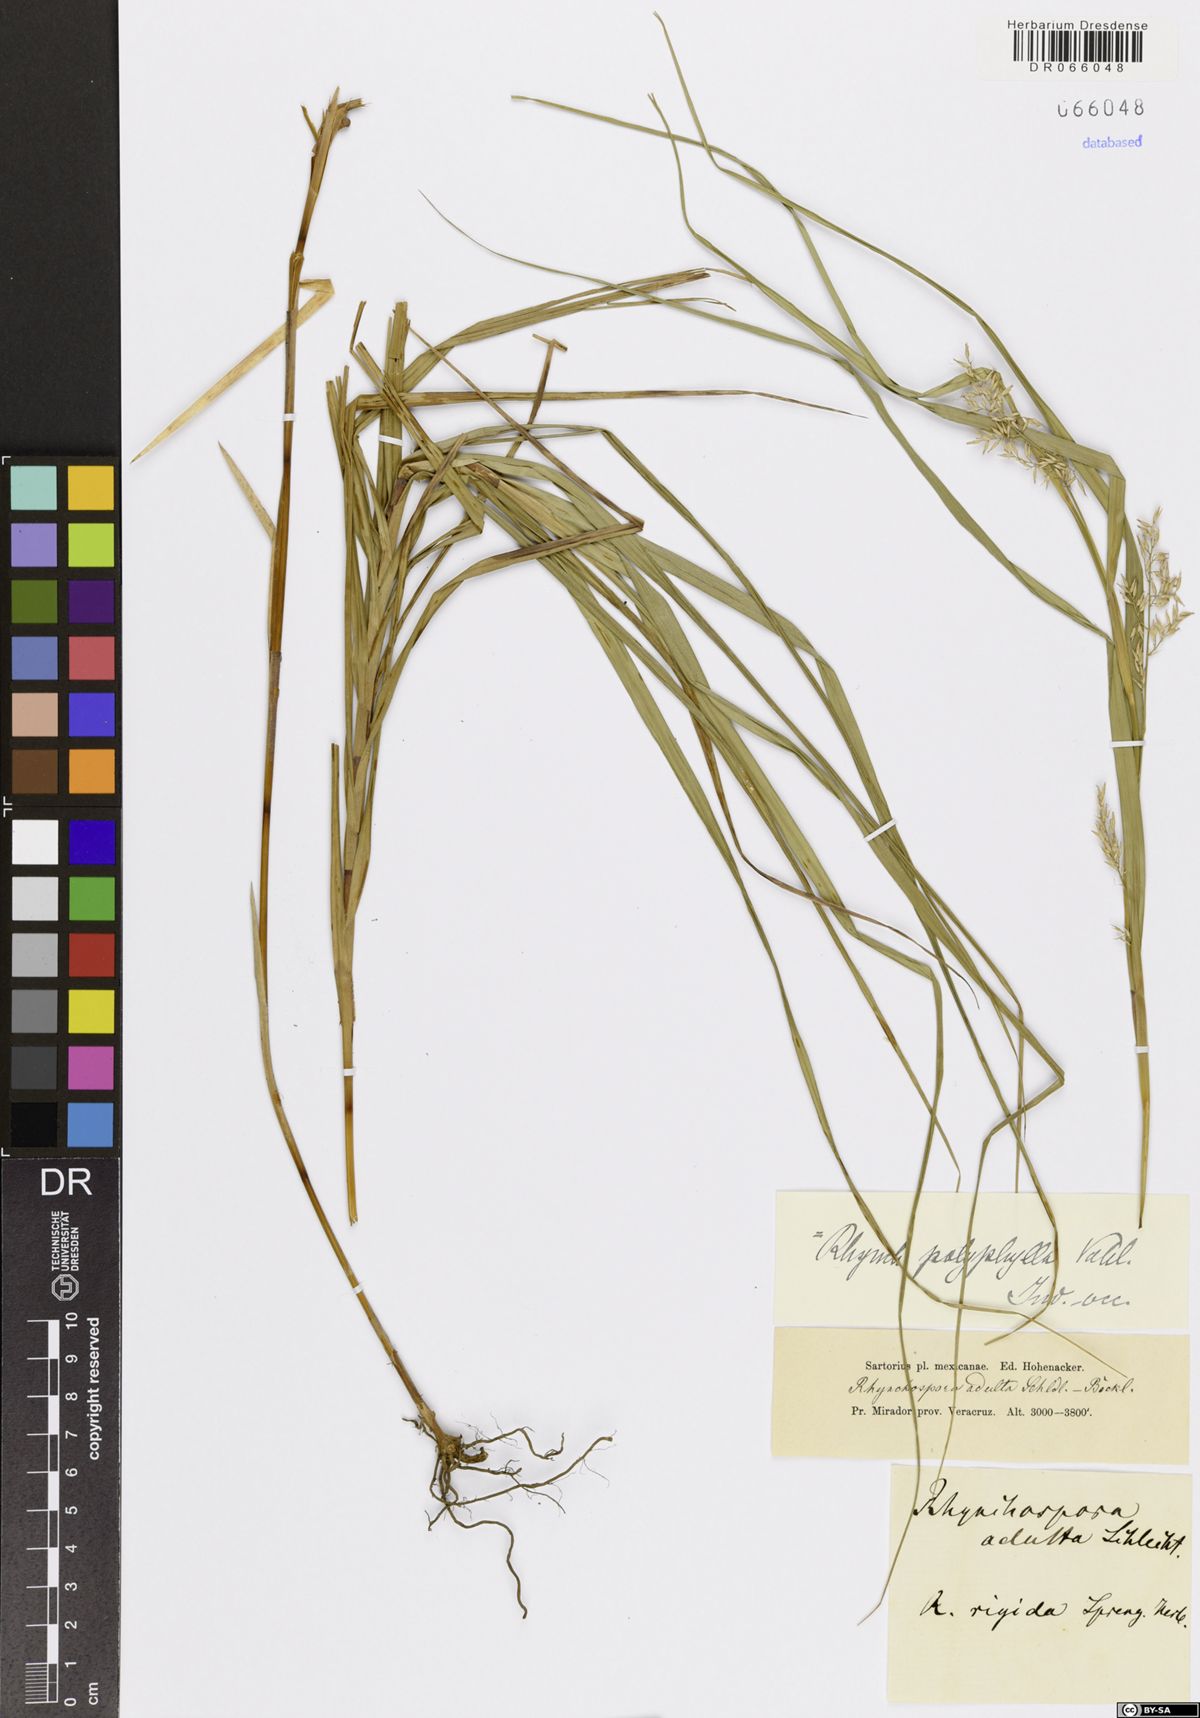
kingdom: Plantae
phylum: Tracheophyta
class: Liliopsida
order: Poales
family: Cyperaceae
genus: Rhynchospora
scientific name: Rhynchospora polyphylla
